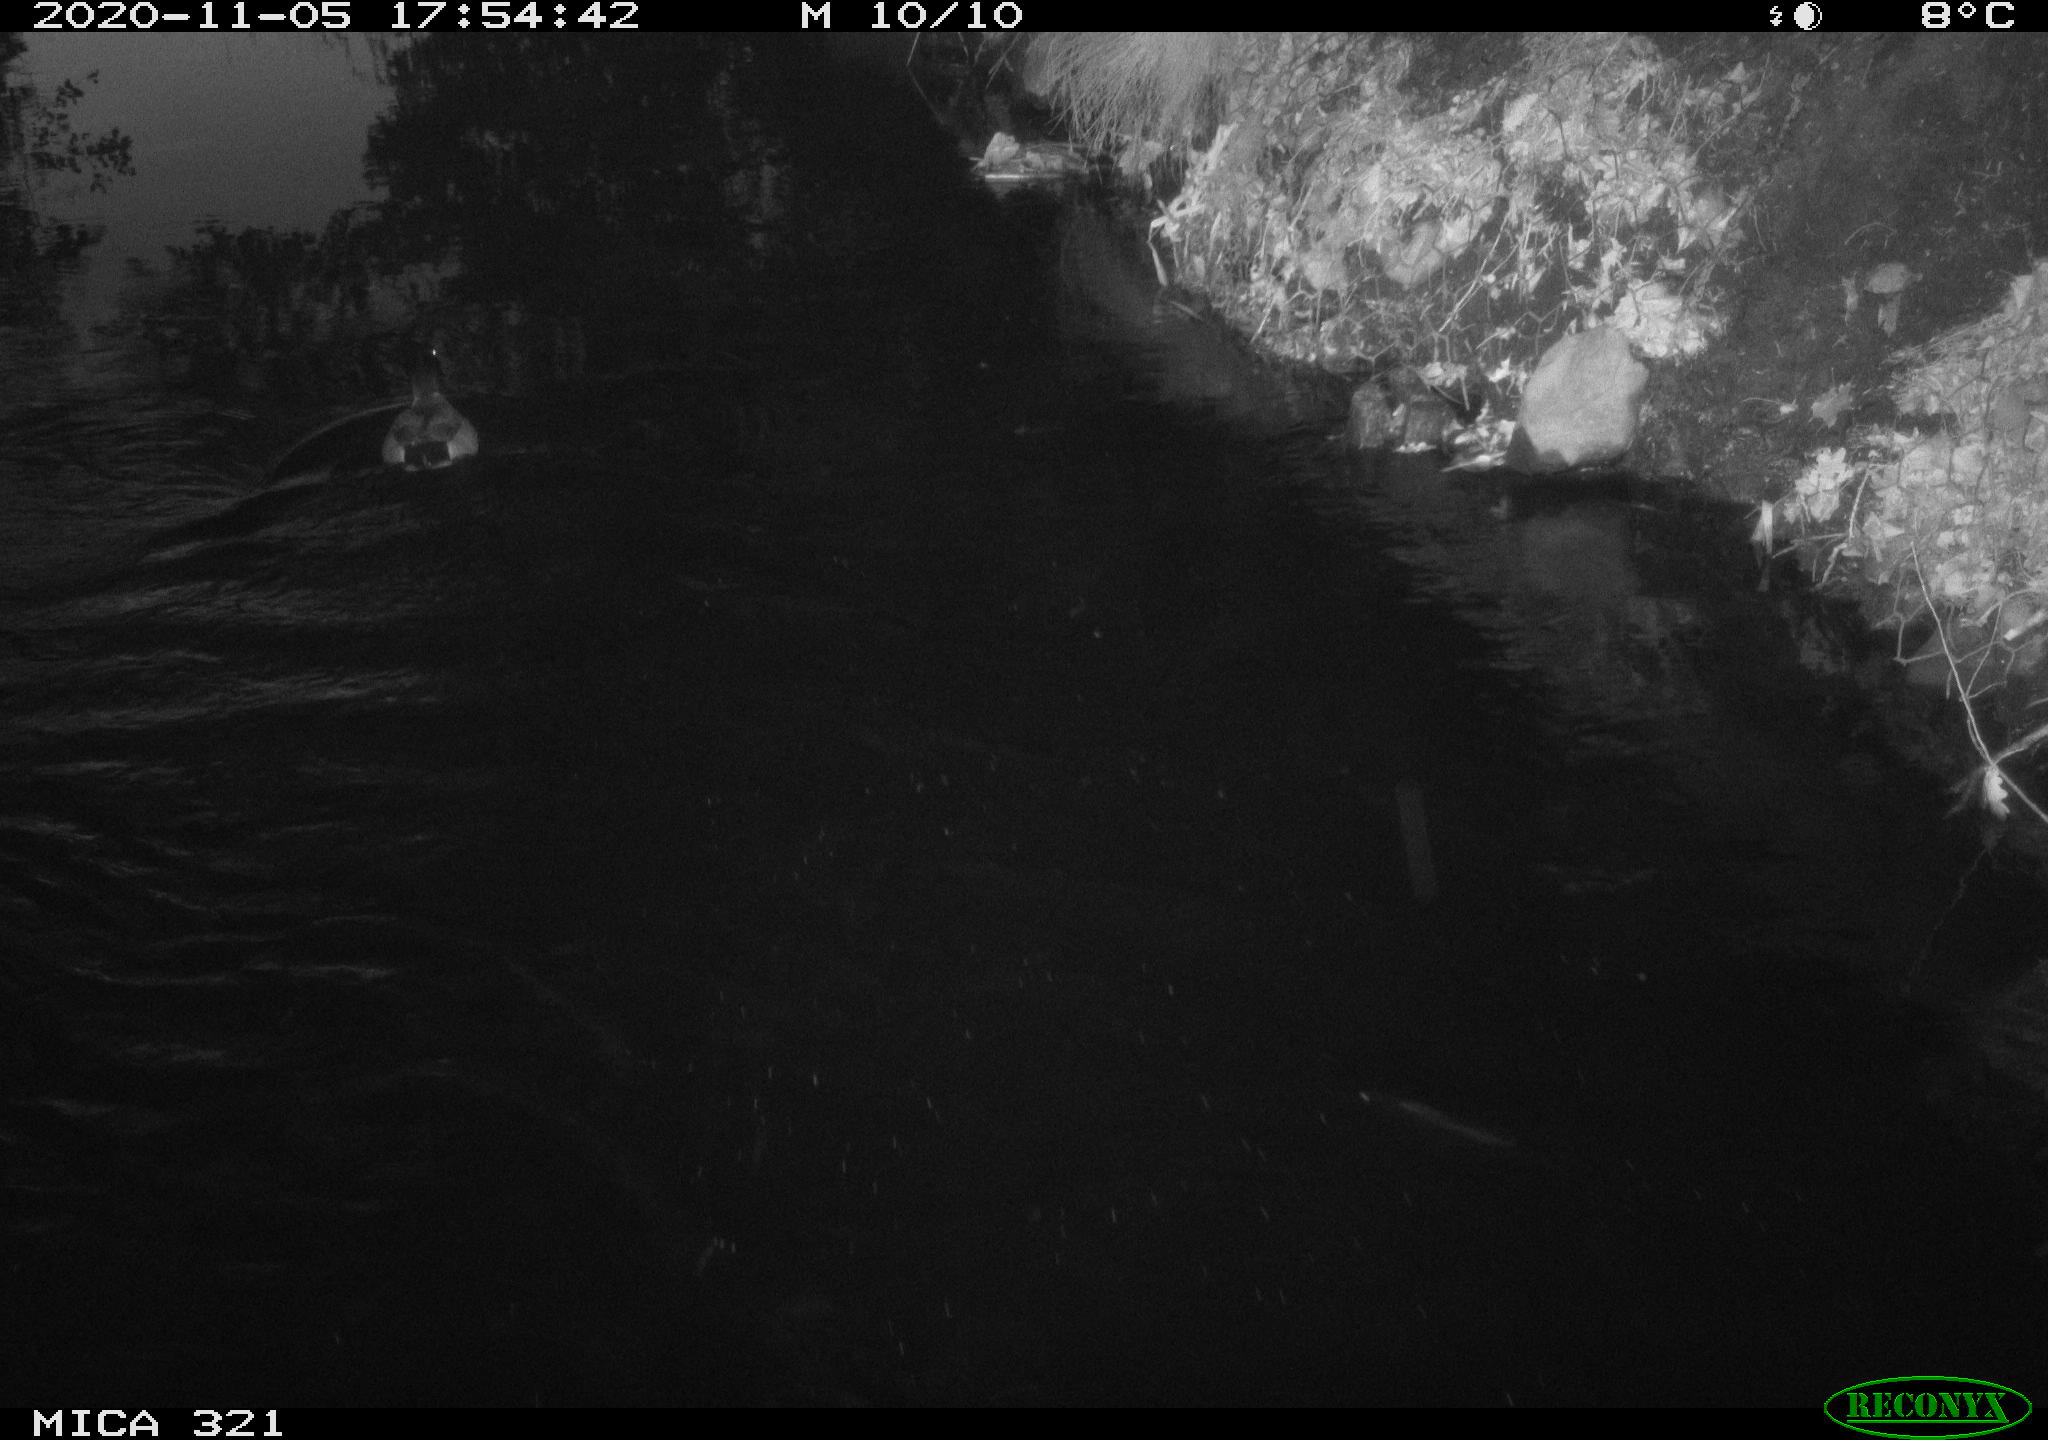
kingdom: Animalia
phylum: Chordata
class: Aves
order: Anseriformes
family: Anatidae
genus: Anas
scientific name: Anas platyrhynchos
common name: Mallard
